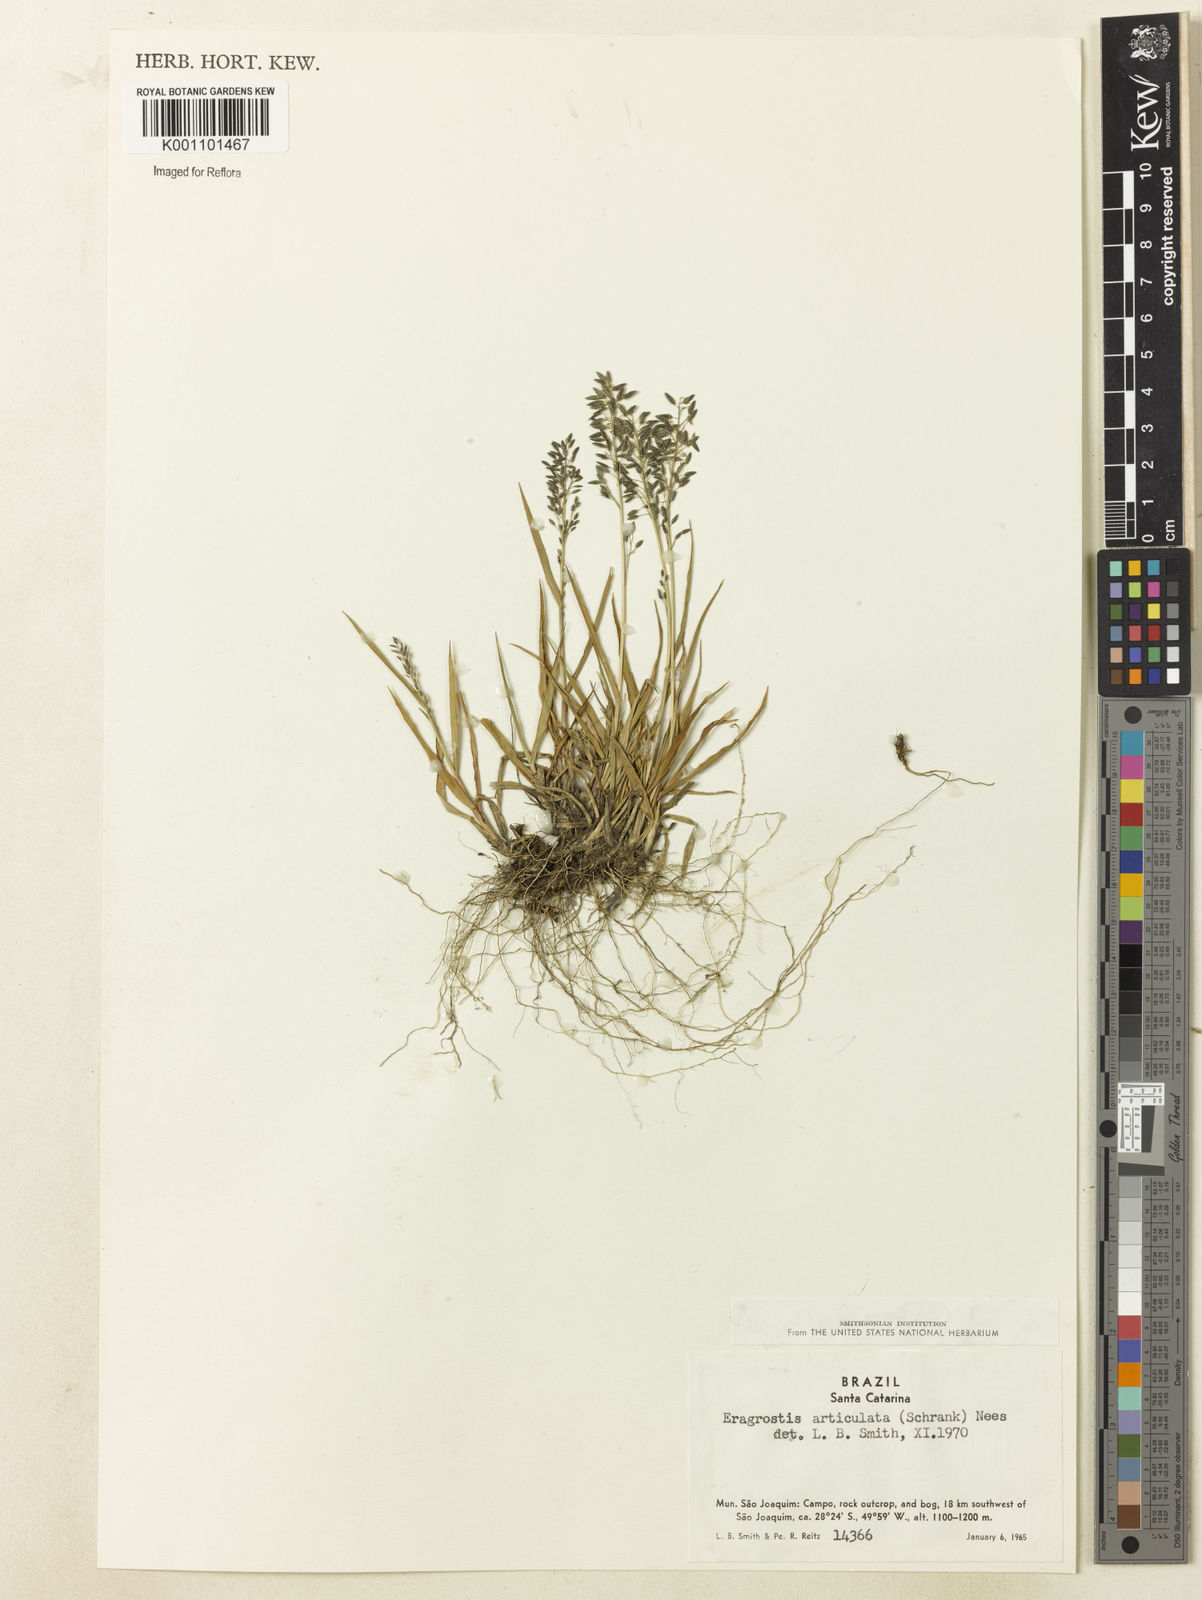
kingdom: Plantae
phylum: Tracheophyta
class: Liliopsida
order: Poales
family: Poaceae
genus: Eragrostis
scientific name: Eragrostis neesii
